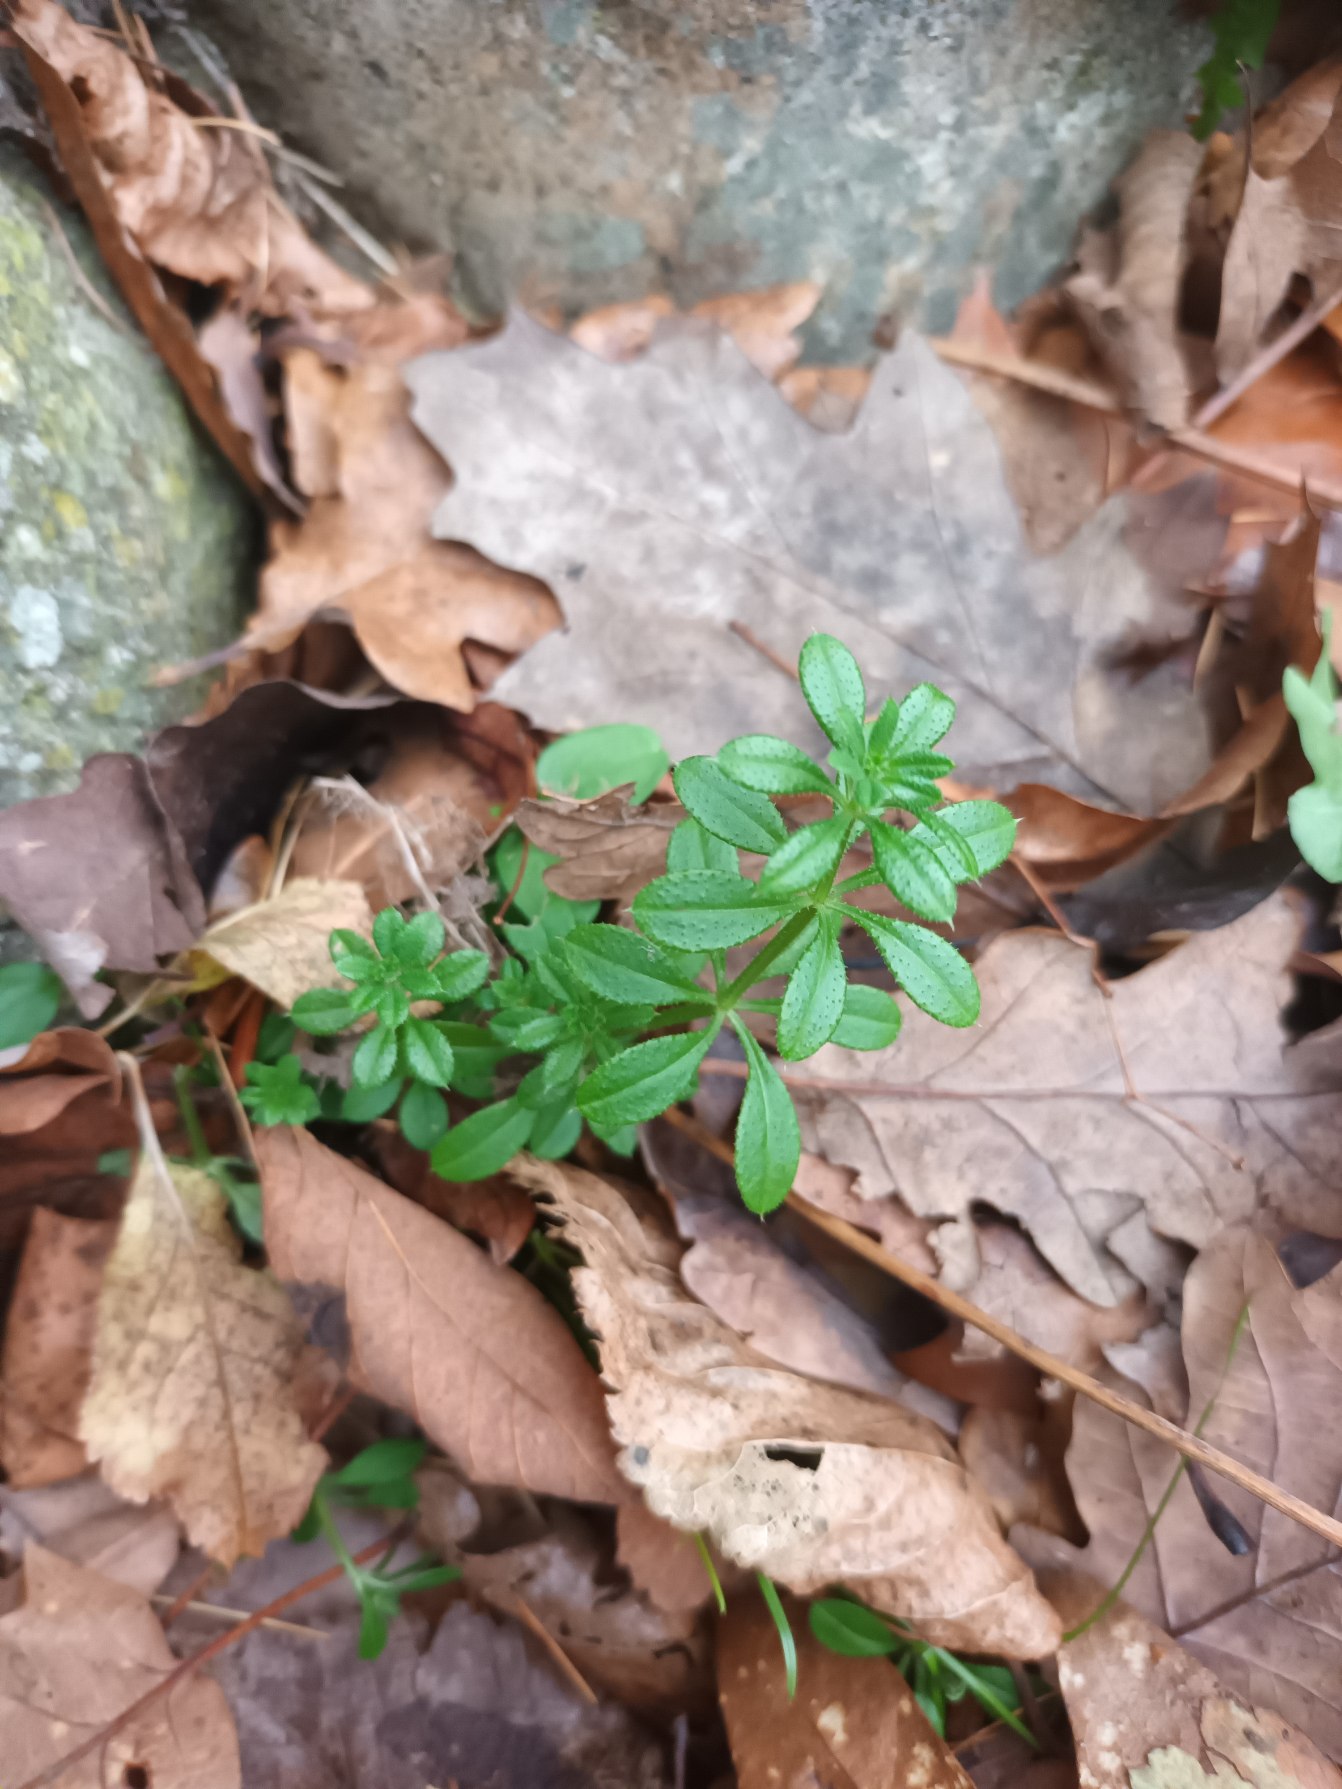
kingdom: Plantae
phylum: Tracheophyta
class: Magnoliopsida
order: Gentianales
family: Rubiaceae
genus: Galium
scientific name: Galium aparine
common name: Burre-snerre
